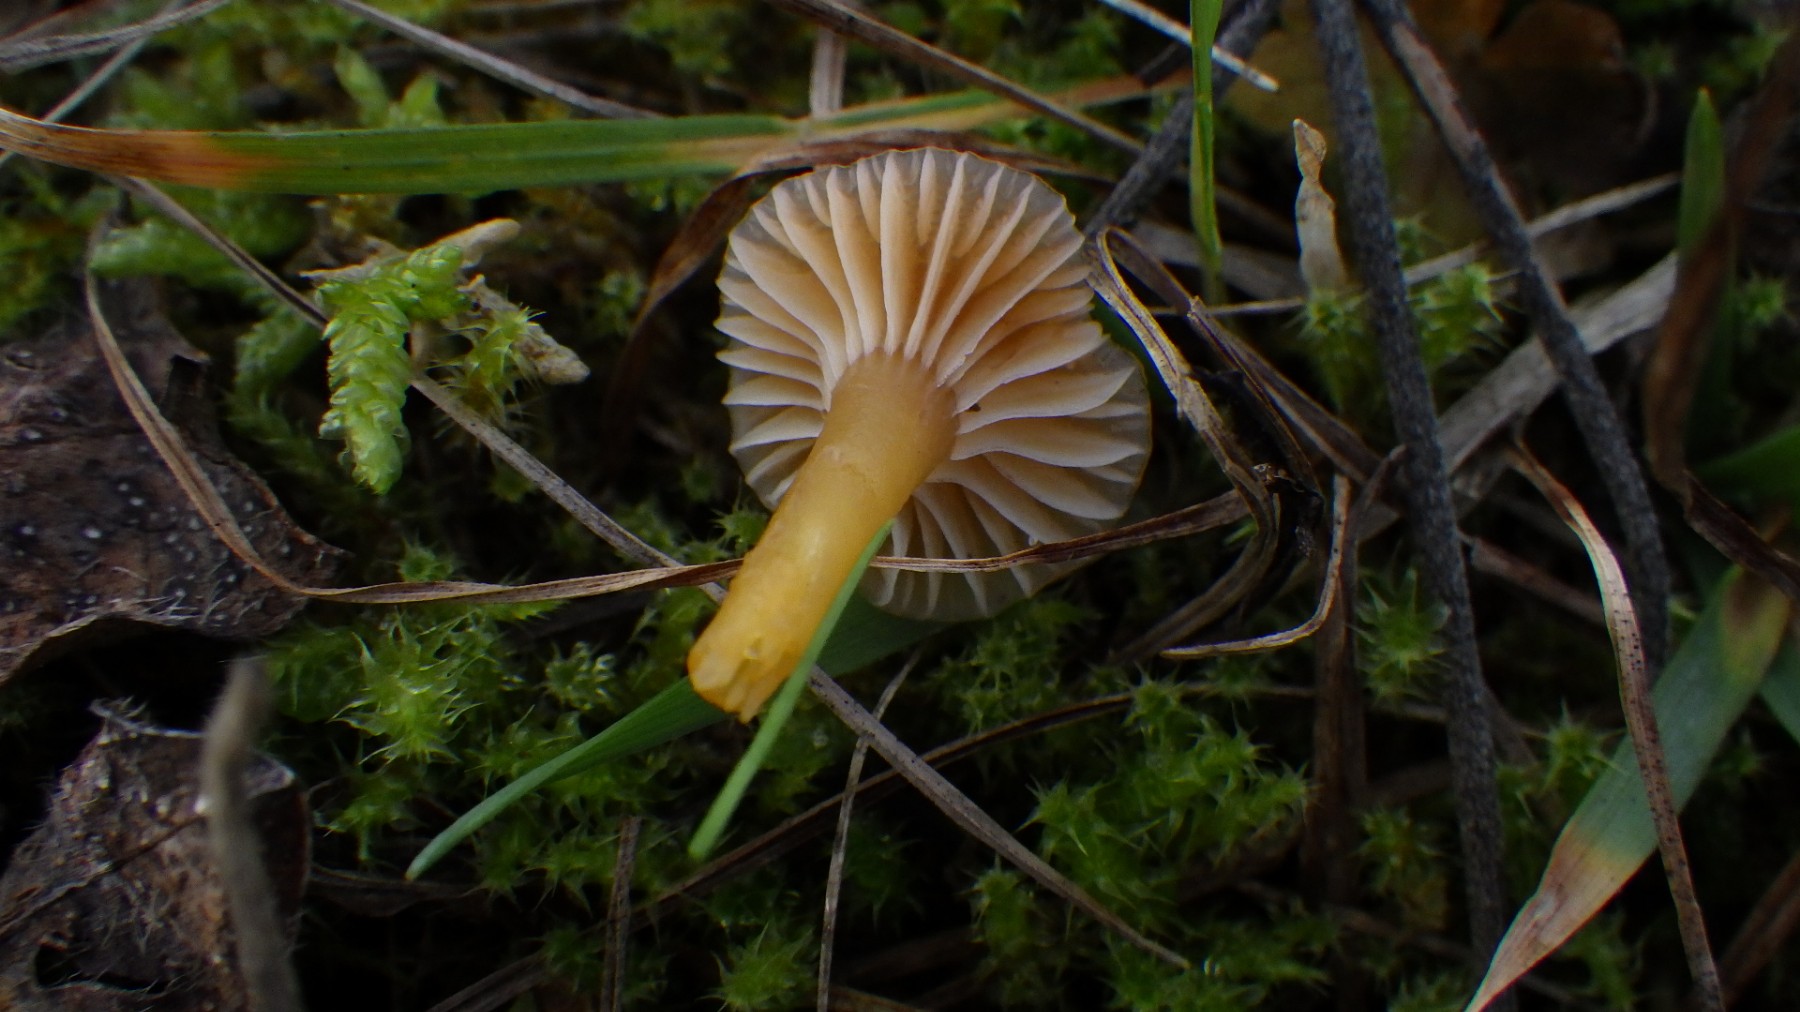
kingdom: Fungi
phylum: Basidiomycota
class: Agaricomycetes
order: Agaricales
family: Hygrophoraceae
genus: Gliophorus
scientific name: Gliophorus laetus
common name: brusk-vokshat
